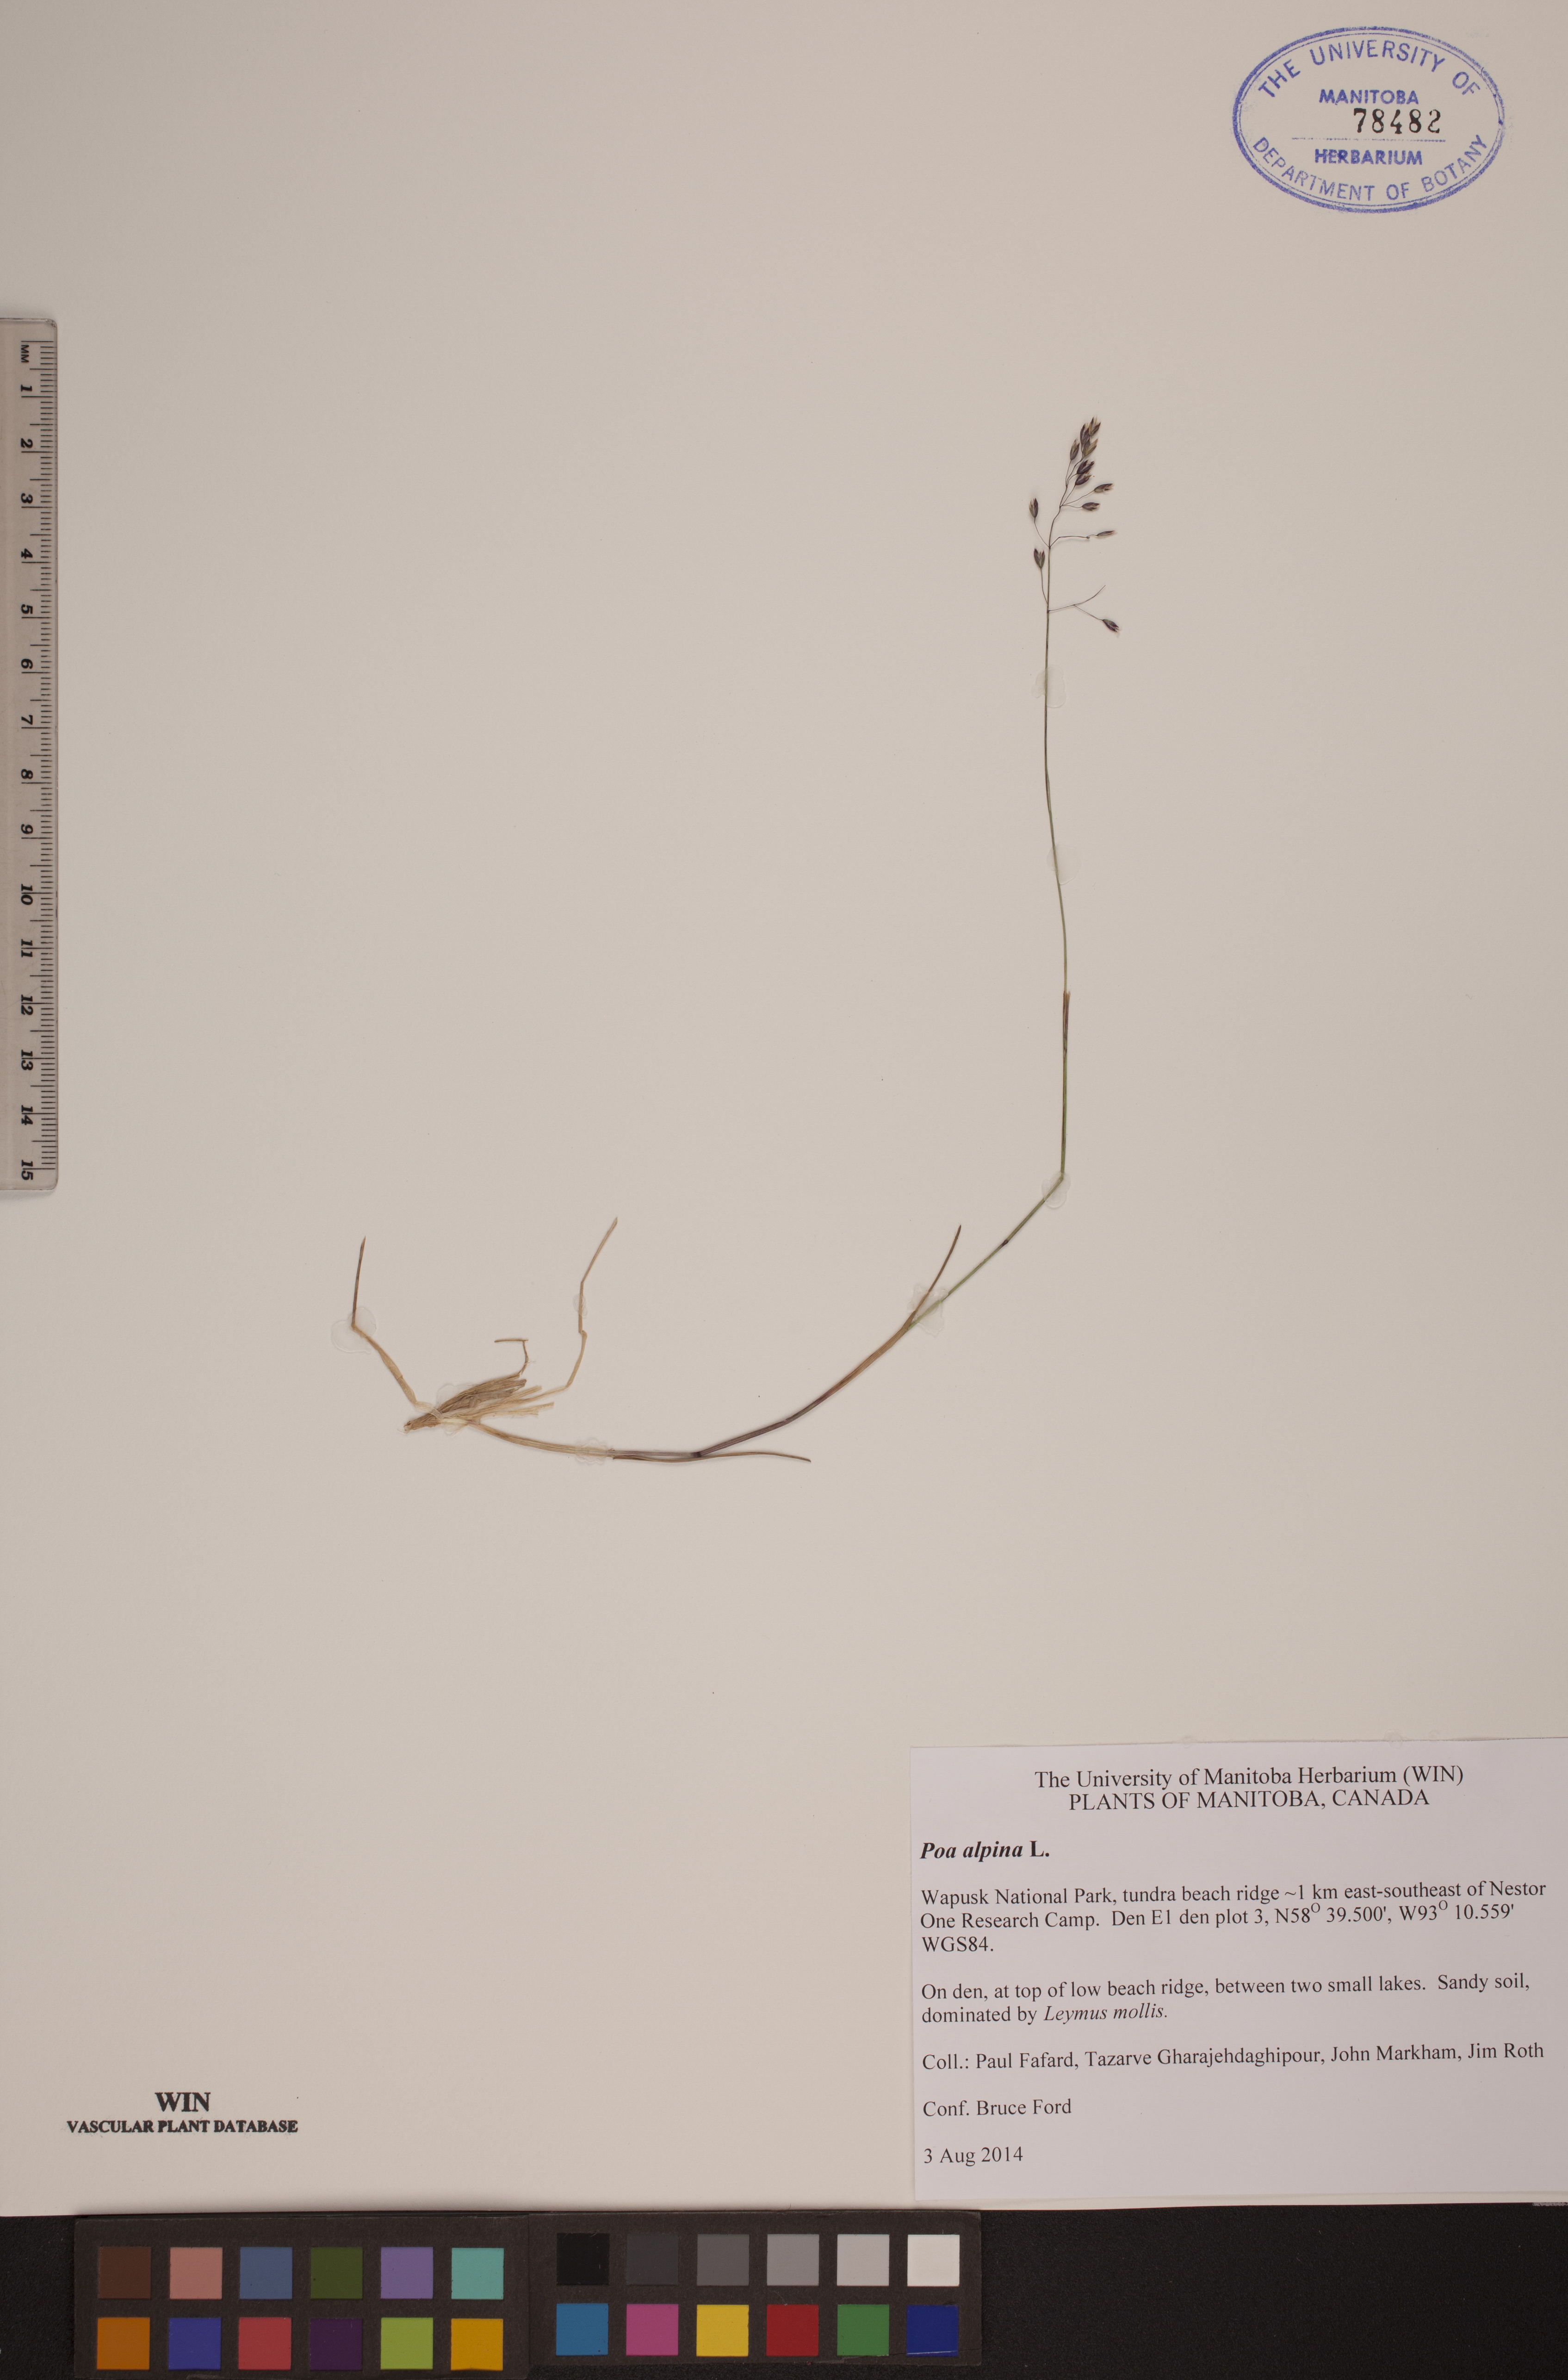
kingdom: Plantae
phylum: Tracheophyta
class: Liliopsida
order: Poales
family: Poaceae
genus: Poa
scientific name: Poa alpina
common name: Alpine bluegrass
